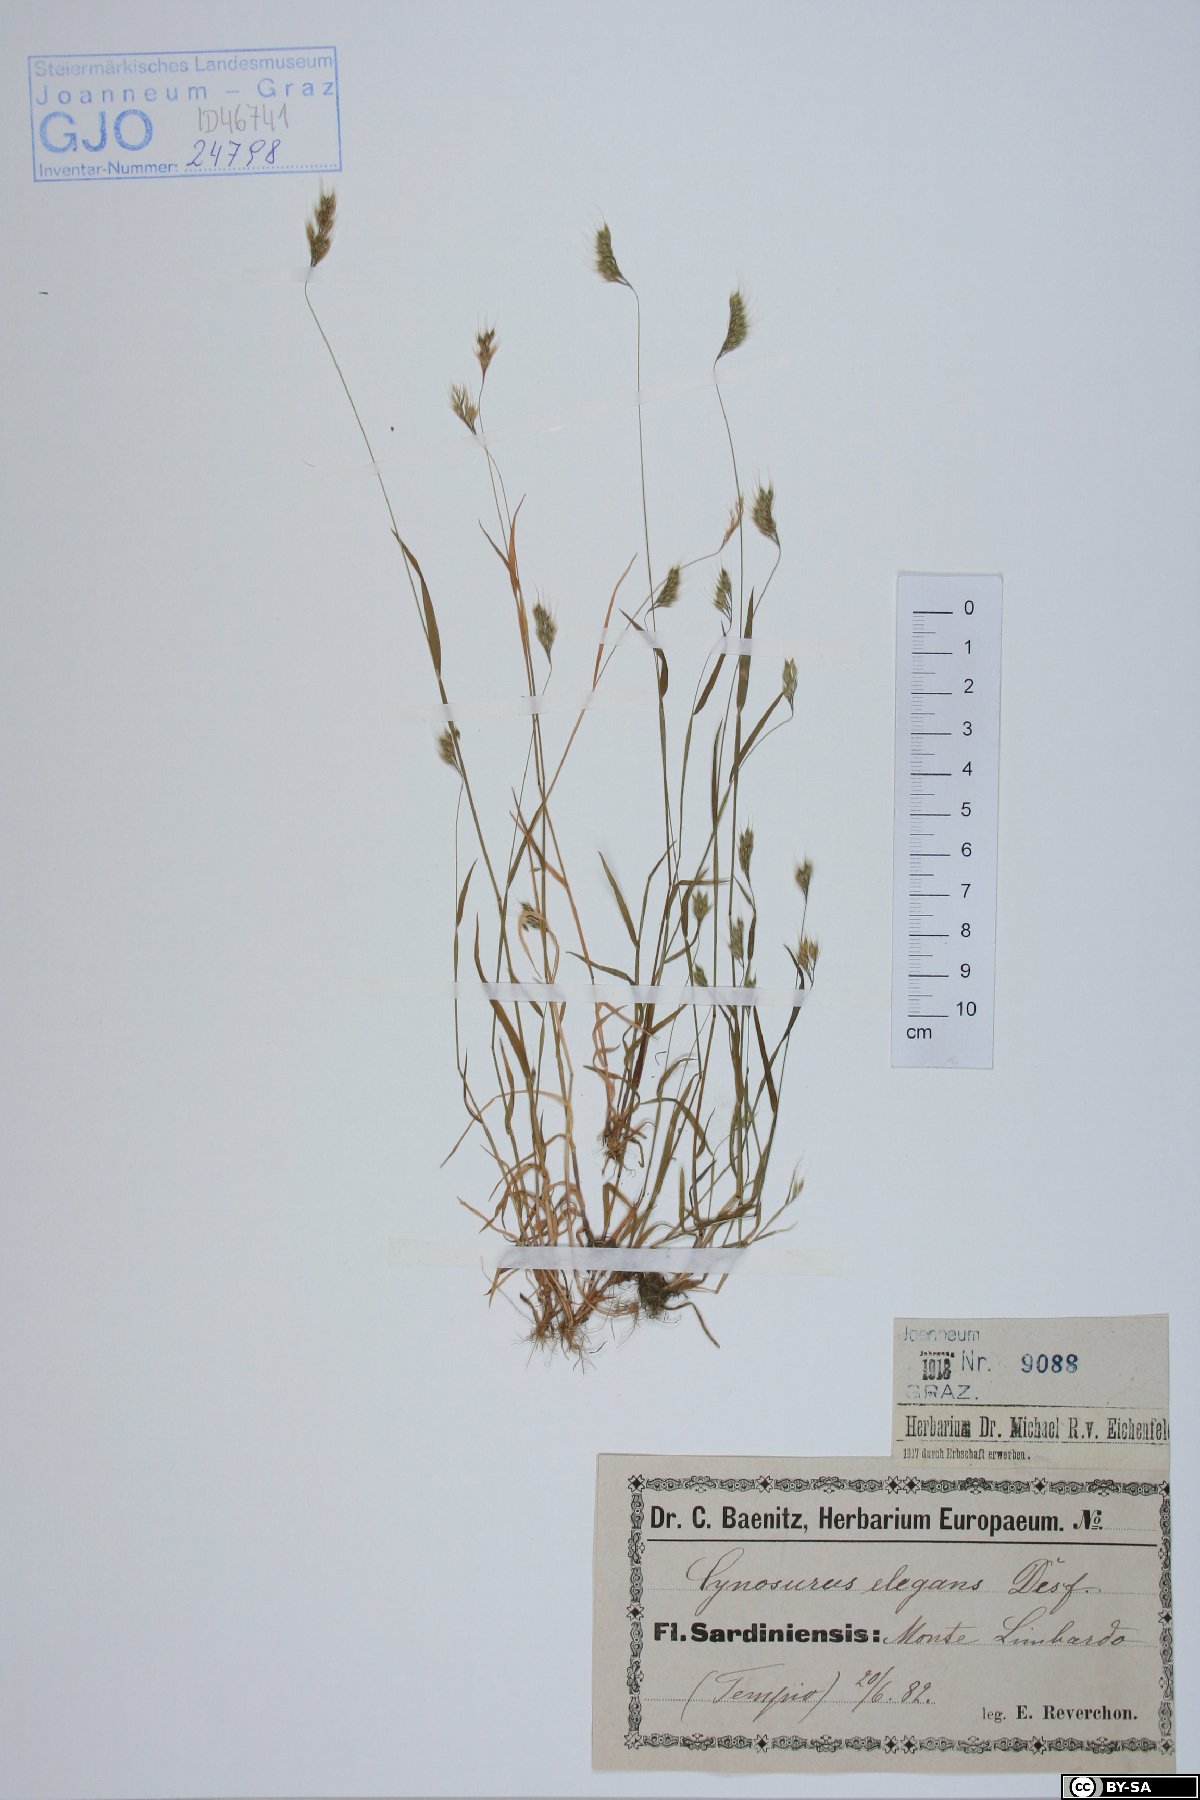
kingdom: Plantae
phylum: Tracheophyta
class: Liliopsida
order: Poales
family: Poaceae
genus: Cynosurus
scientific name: Cynosurus elegans
